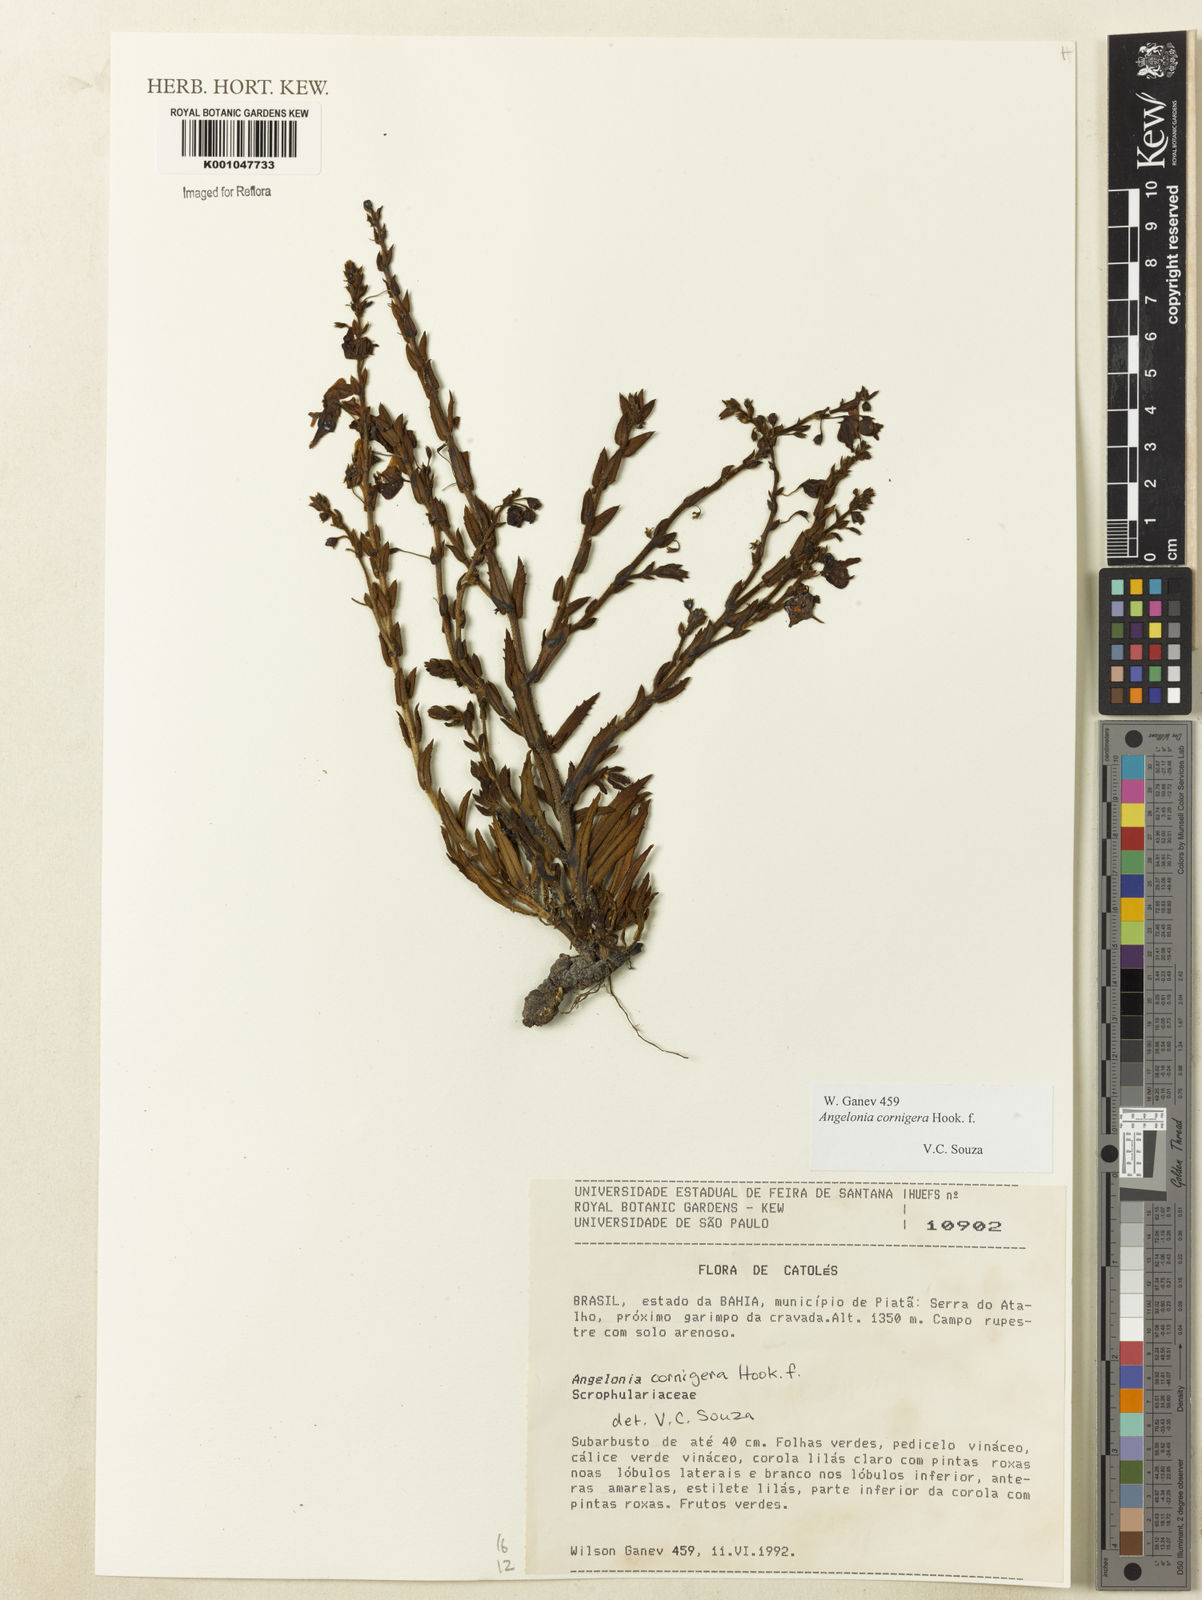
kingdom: Plantae
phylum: Tracheophyta
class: Magnoliopsida
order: Lamiales
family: Plantaginaceae
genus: Angelonia
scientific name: Angelonia cornigera
